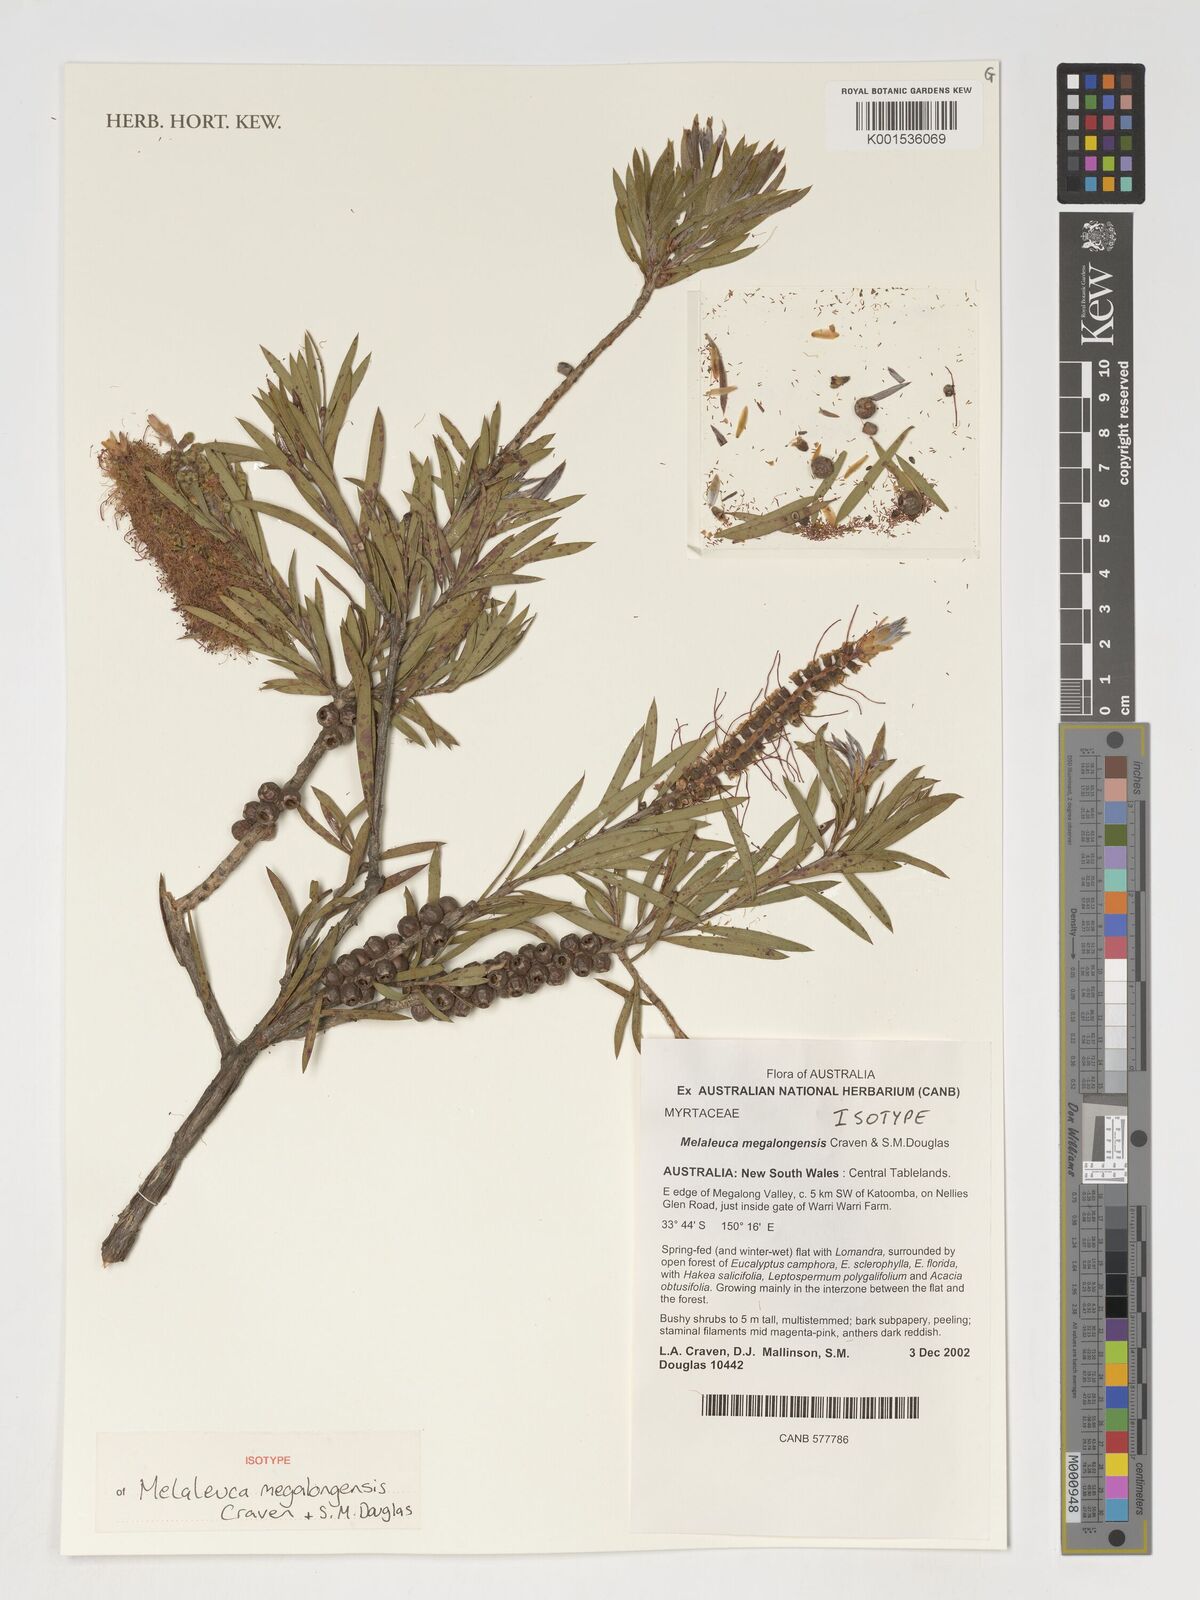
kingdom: Plantae
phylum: Tracheophyta
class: Magnoliopsida
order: Myrtales
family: Myrtaceae
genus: Callistemon
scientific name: Callistemon megalongensis
